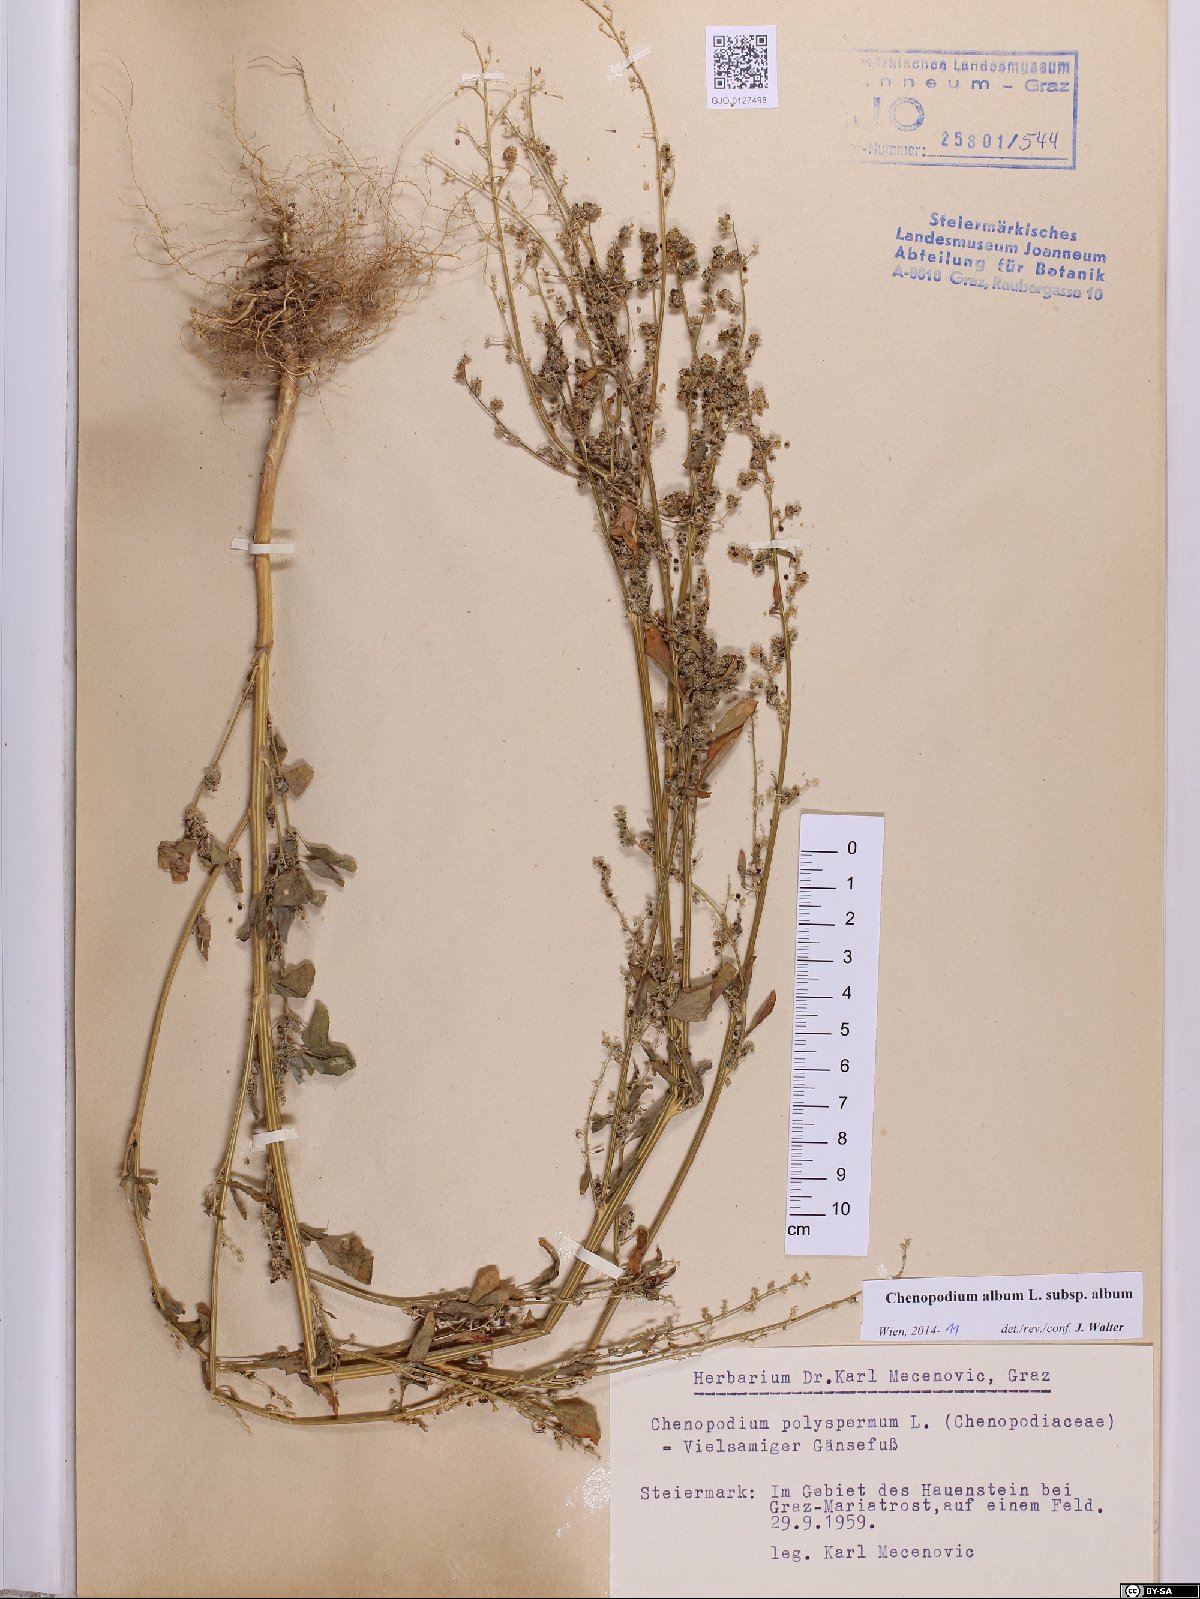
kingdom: Plantae
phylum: Tracheophyta
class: Magnoliopsida
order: Caryophyllales
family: Amaranthaceae
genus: Chenopodium
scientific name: Chenopodium album
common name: Fat-hen
